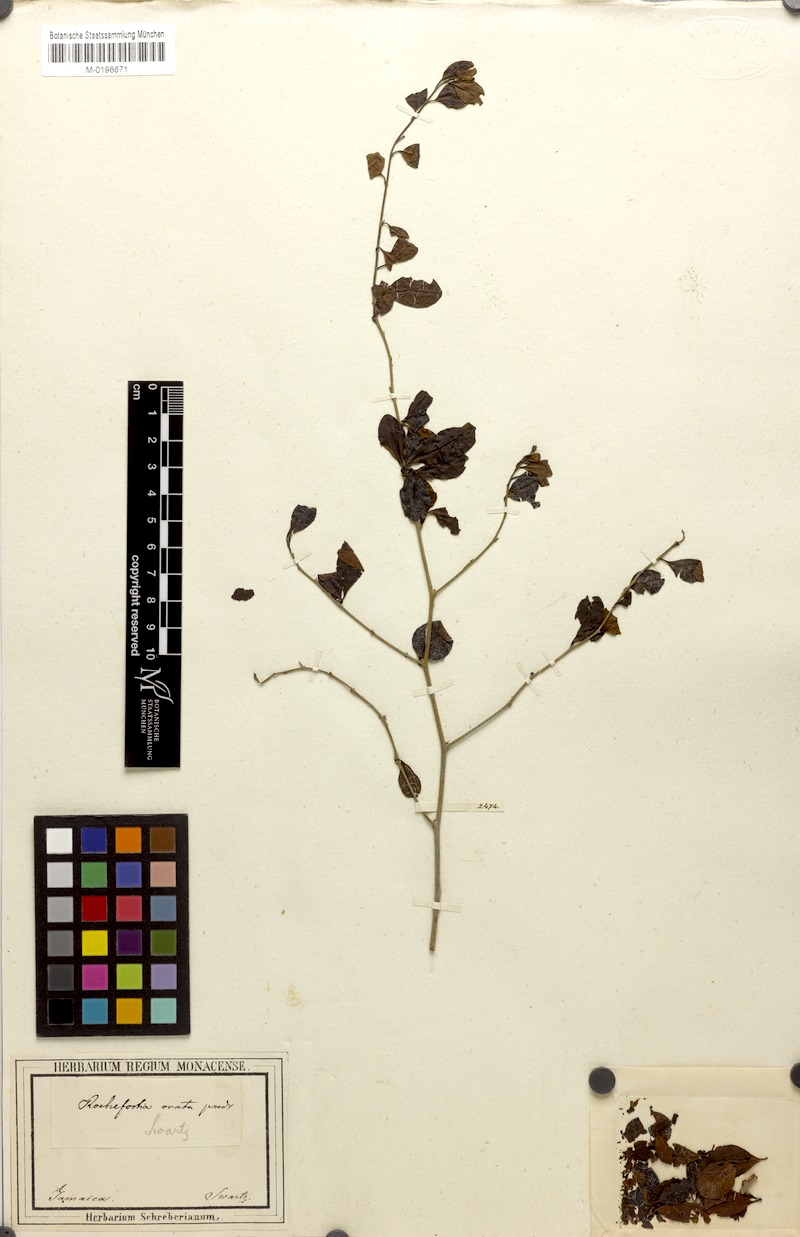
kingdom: Plantae
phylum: Tracheophyta
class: Magnoliopsida
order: Boraginales
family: Ehretiaceae
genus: Rochefortia
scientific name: Rochefortia cuneata
